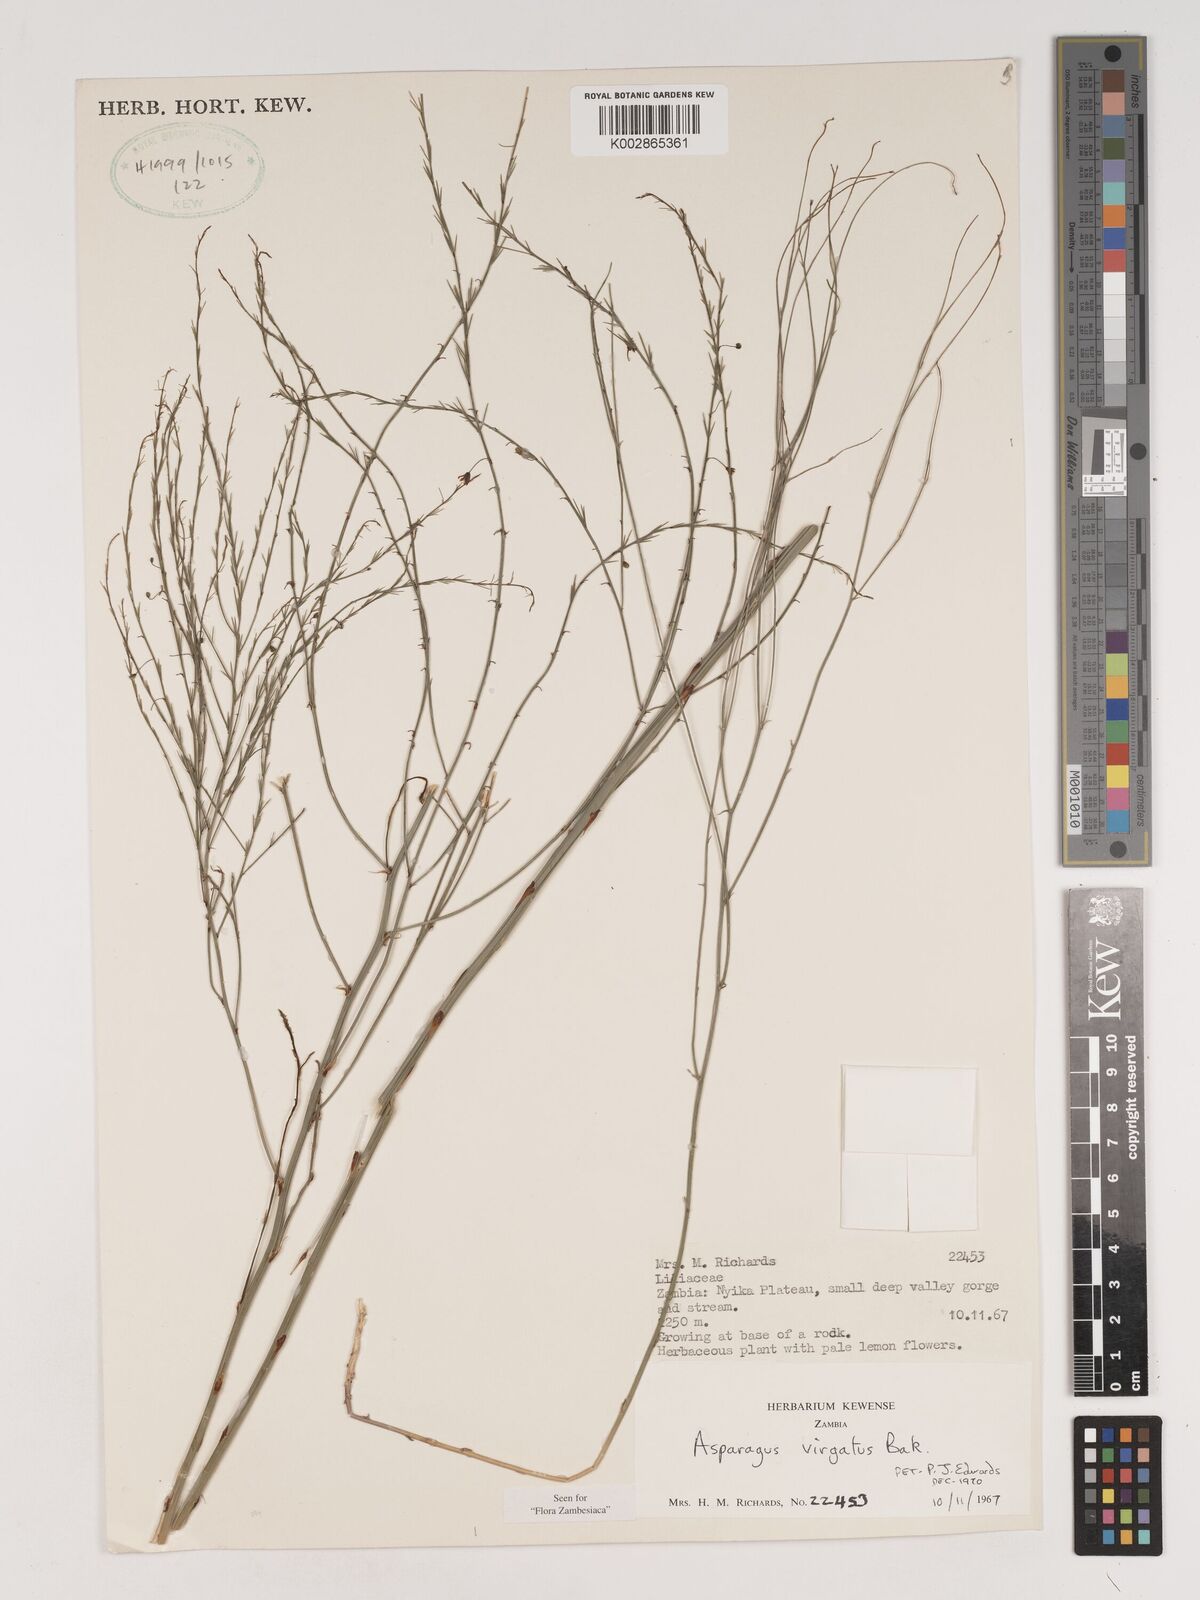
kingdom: Plantae
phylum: Tracheophyta
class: Liliopsida
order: Asparagales
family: Asparagaceae
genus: Asparagus
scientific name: Asparagus virgatus
